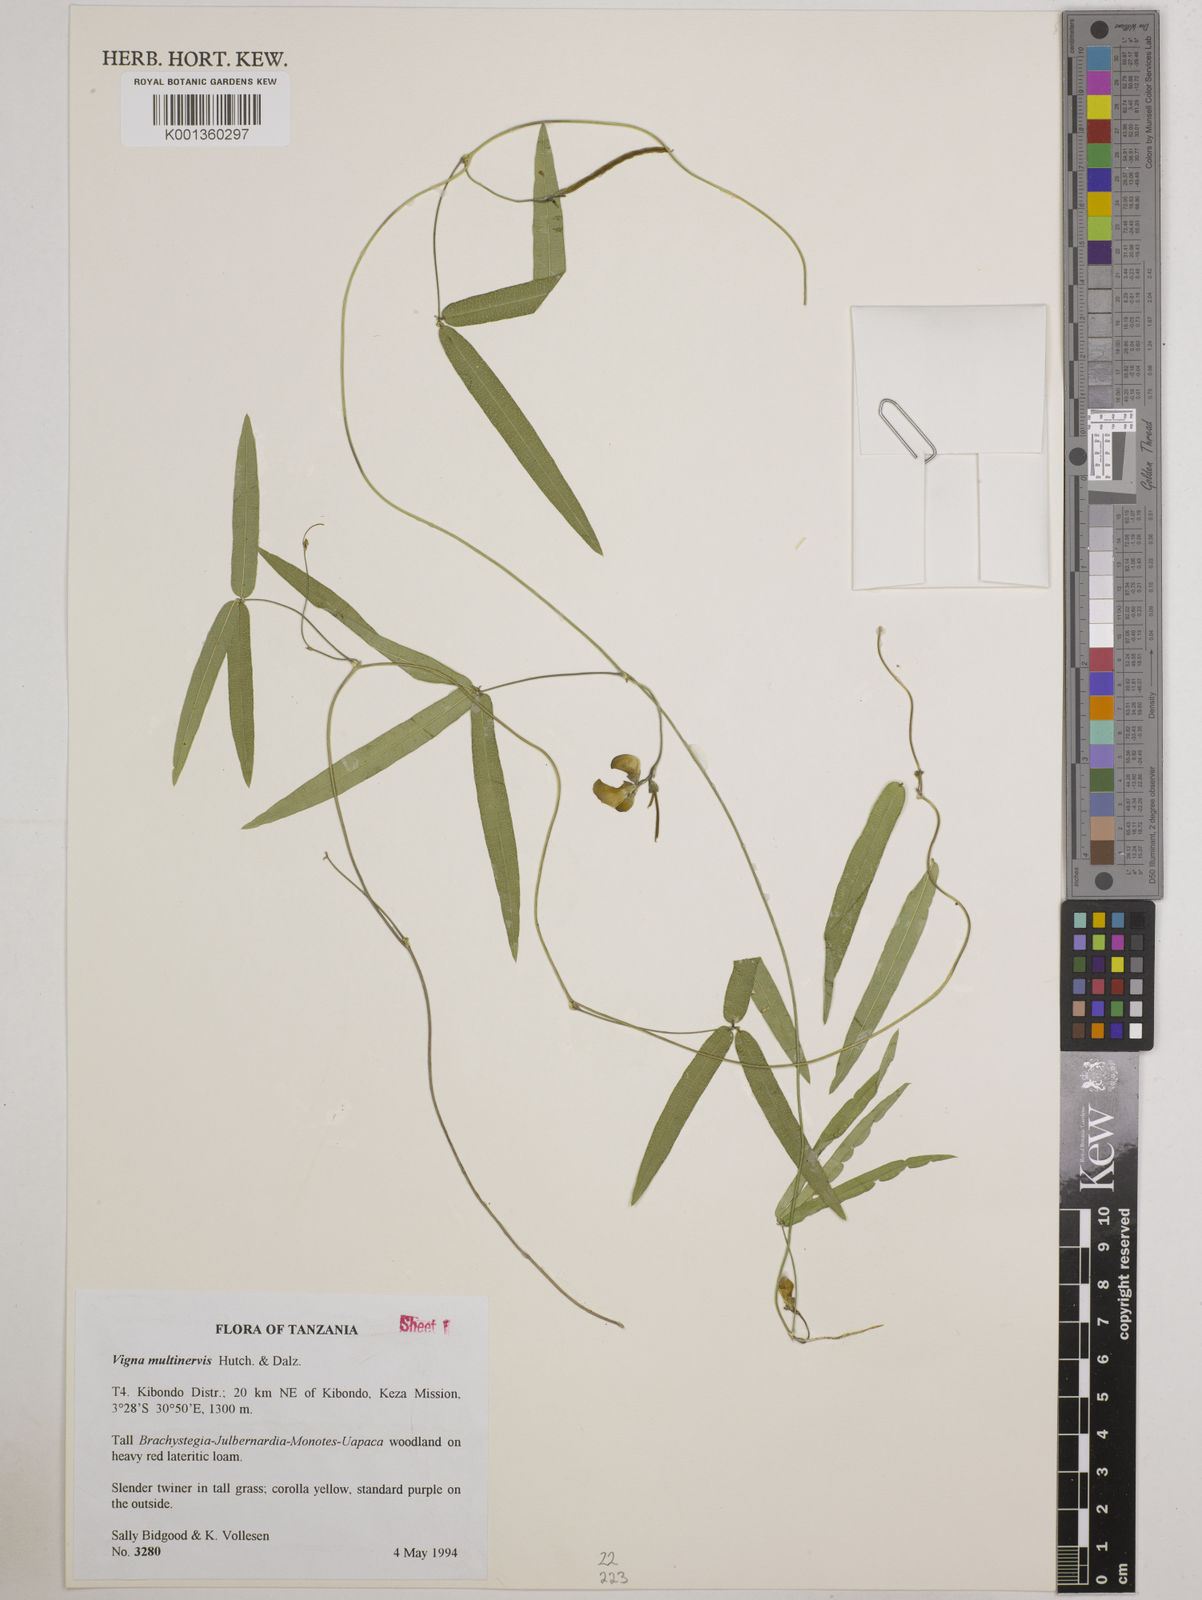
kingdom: Plantae
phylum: Tracheophyta
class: Magnoliopsida
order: Fabales
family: Fabaceae
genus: Vigna
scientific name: Vigna multinervis
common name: Fula-pulaar
